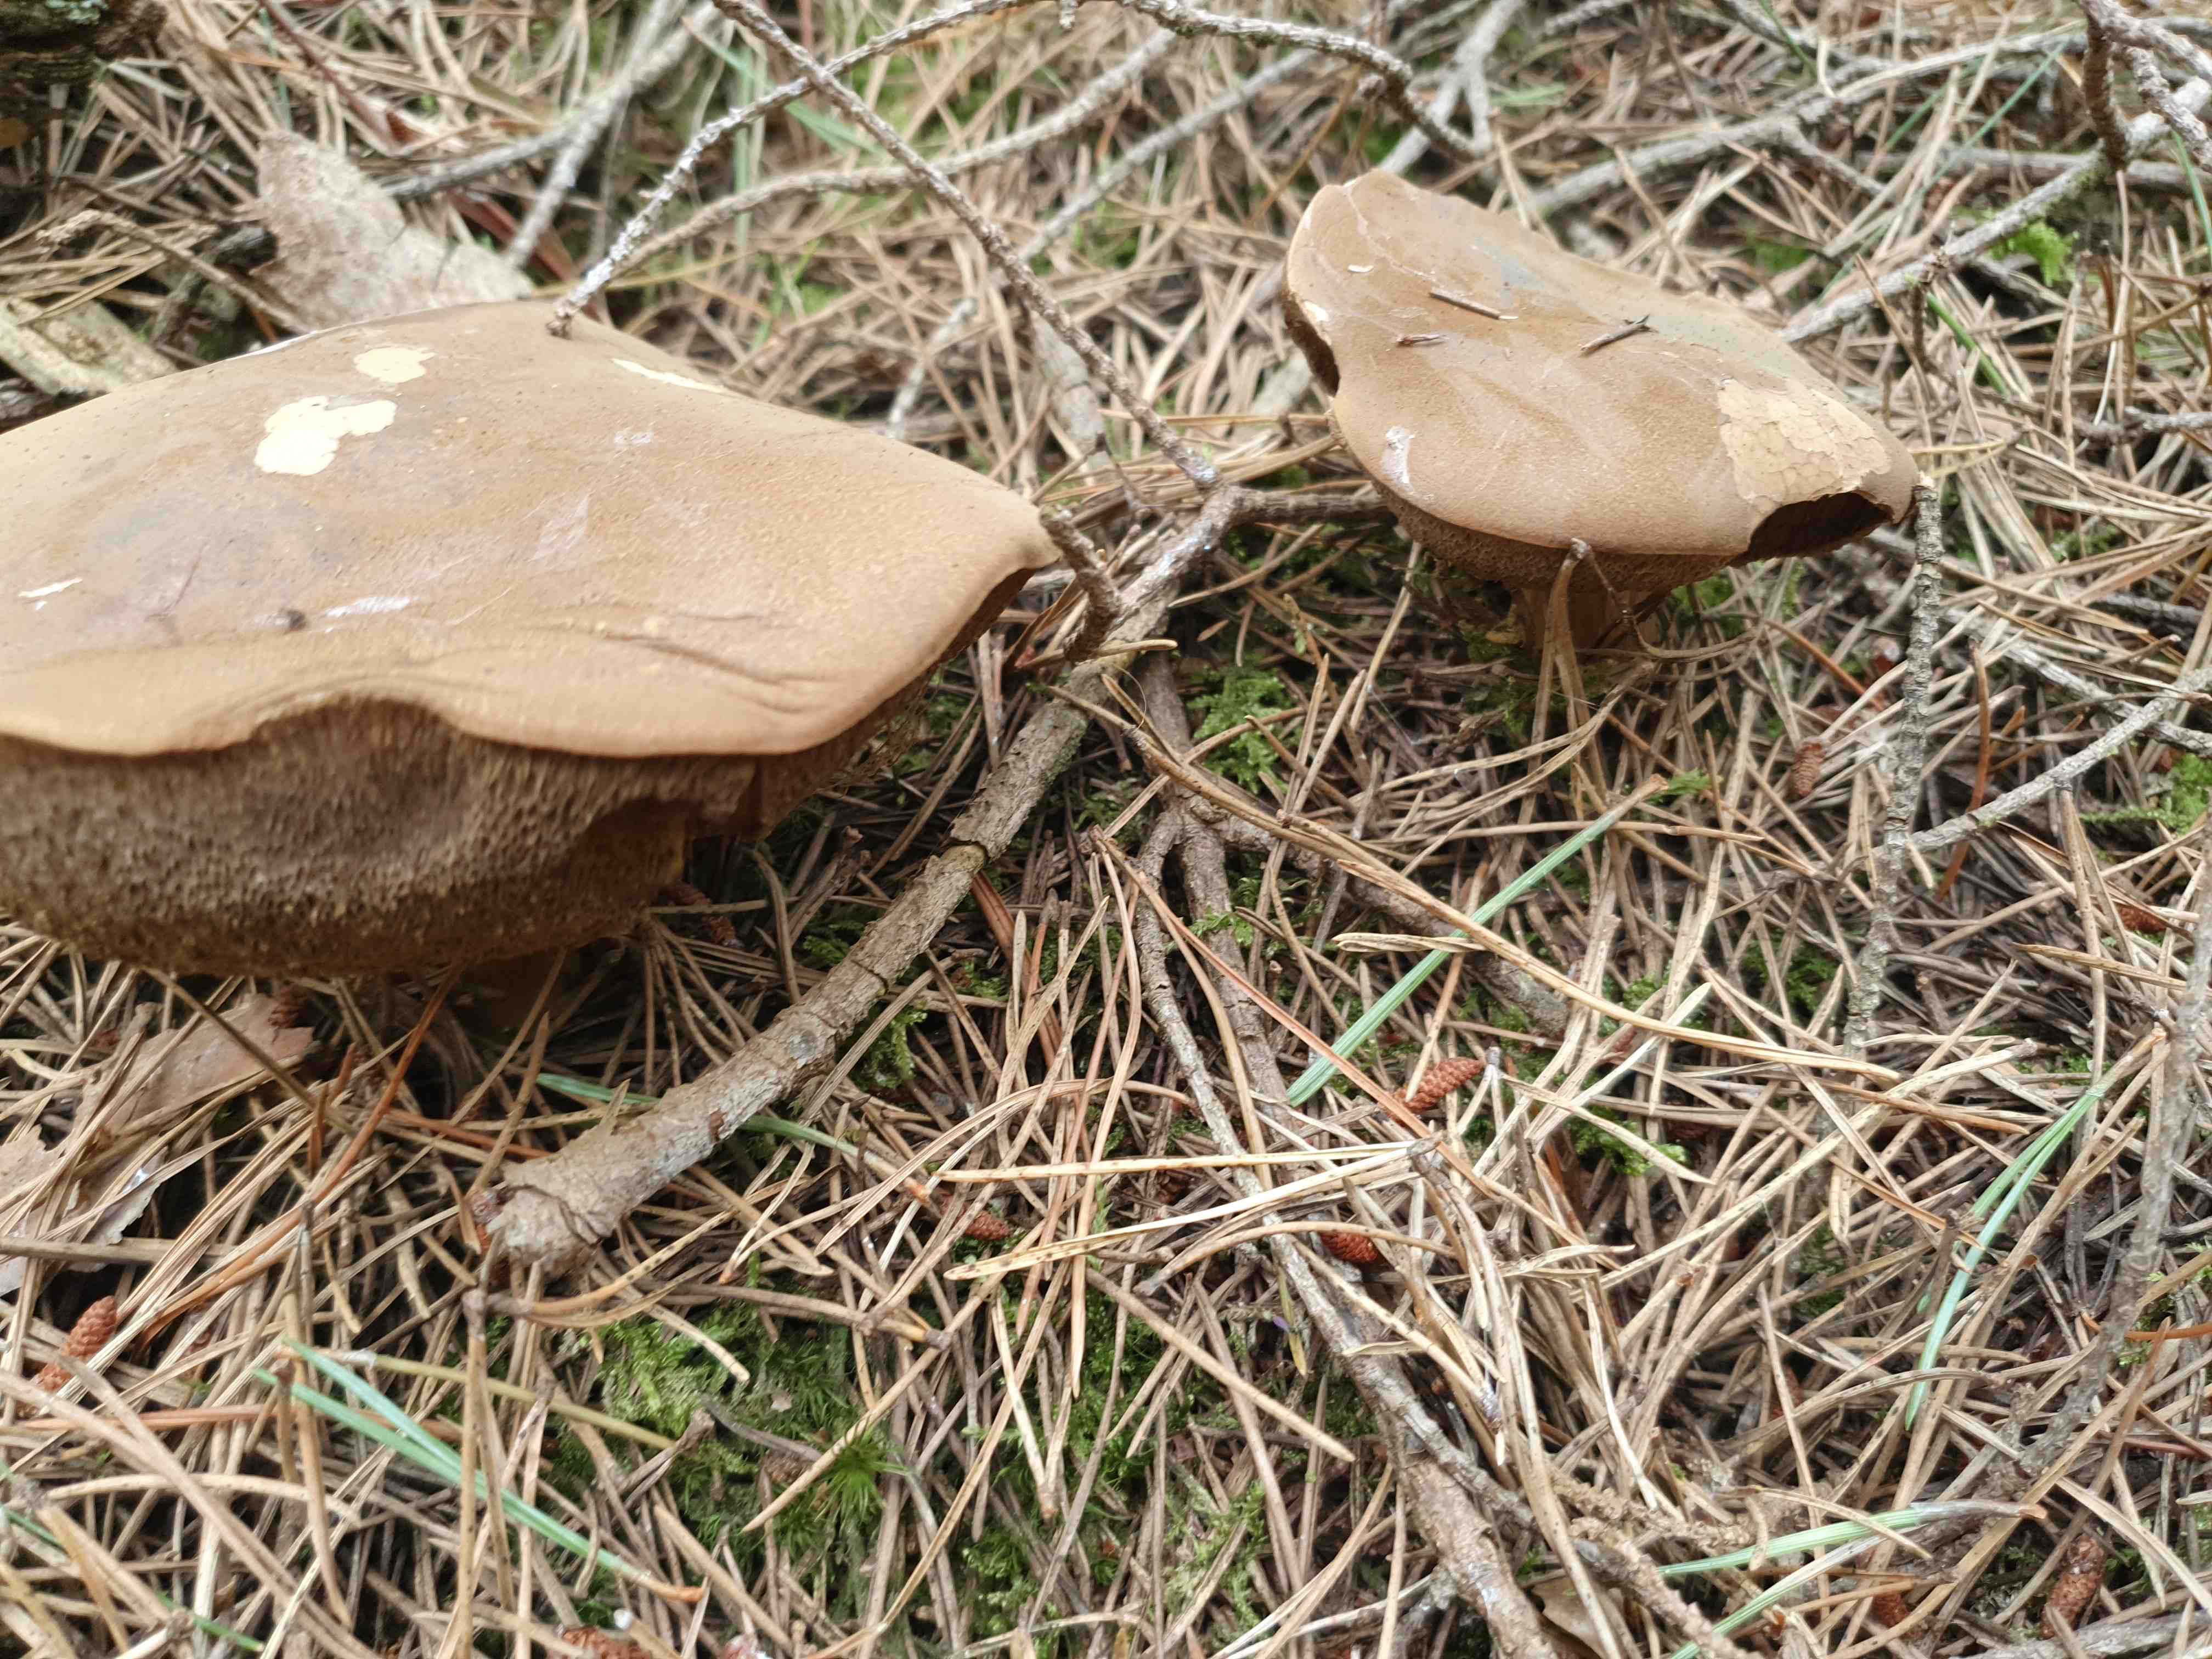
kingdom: Fungi
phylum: Basidiomycota
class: Agaricomycetes
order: Boletales
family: Boletaceae
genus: Imleria
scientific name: Imleria badia
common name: brunstokket rørhat
